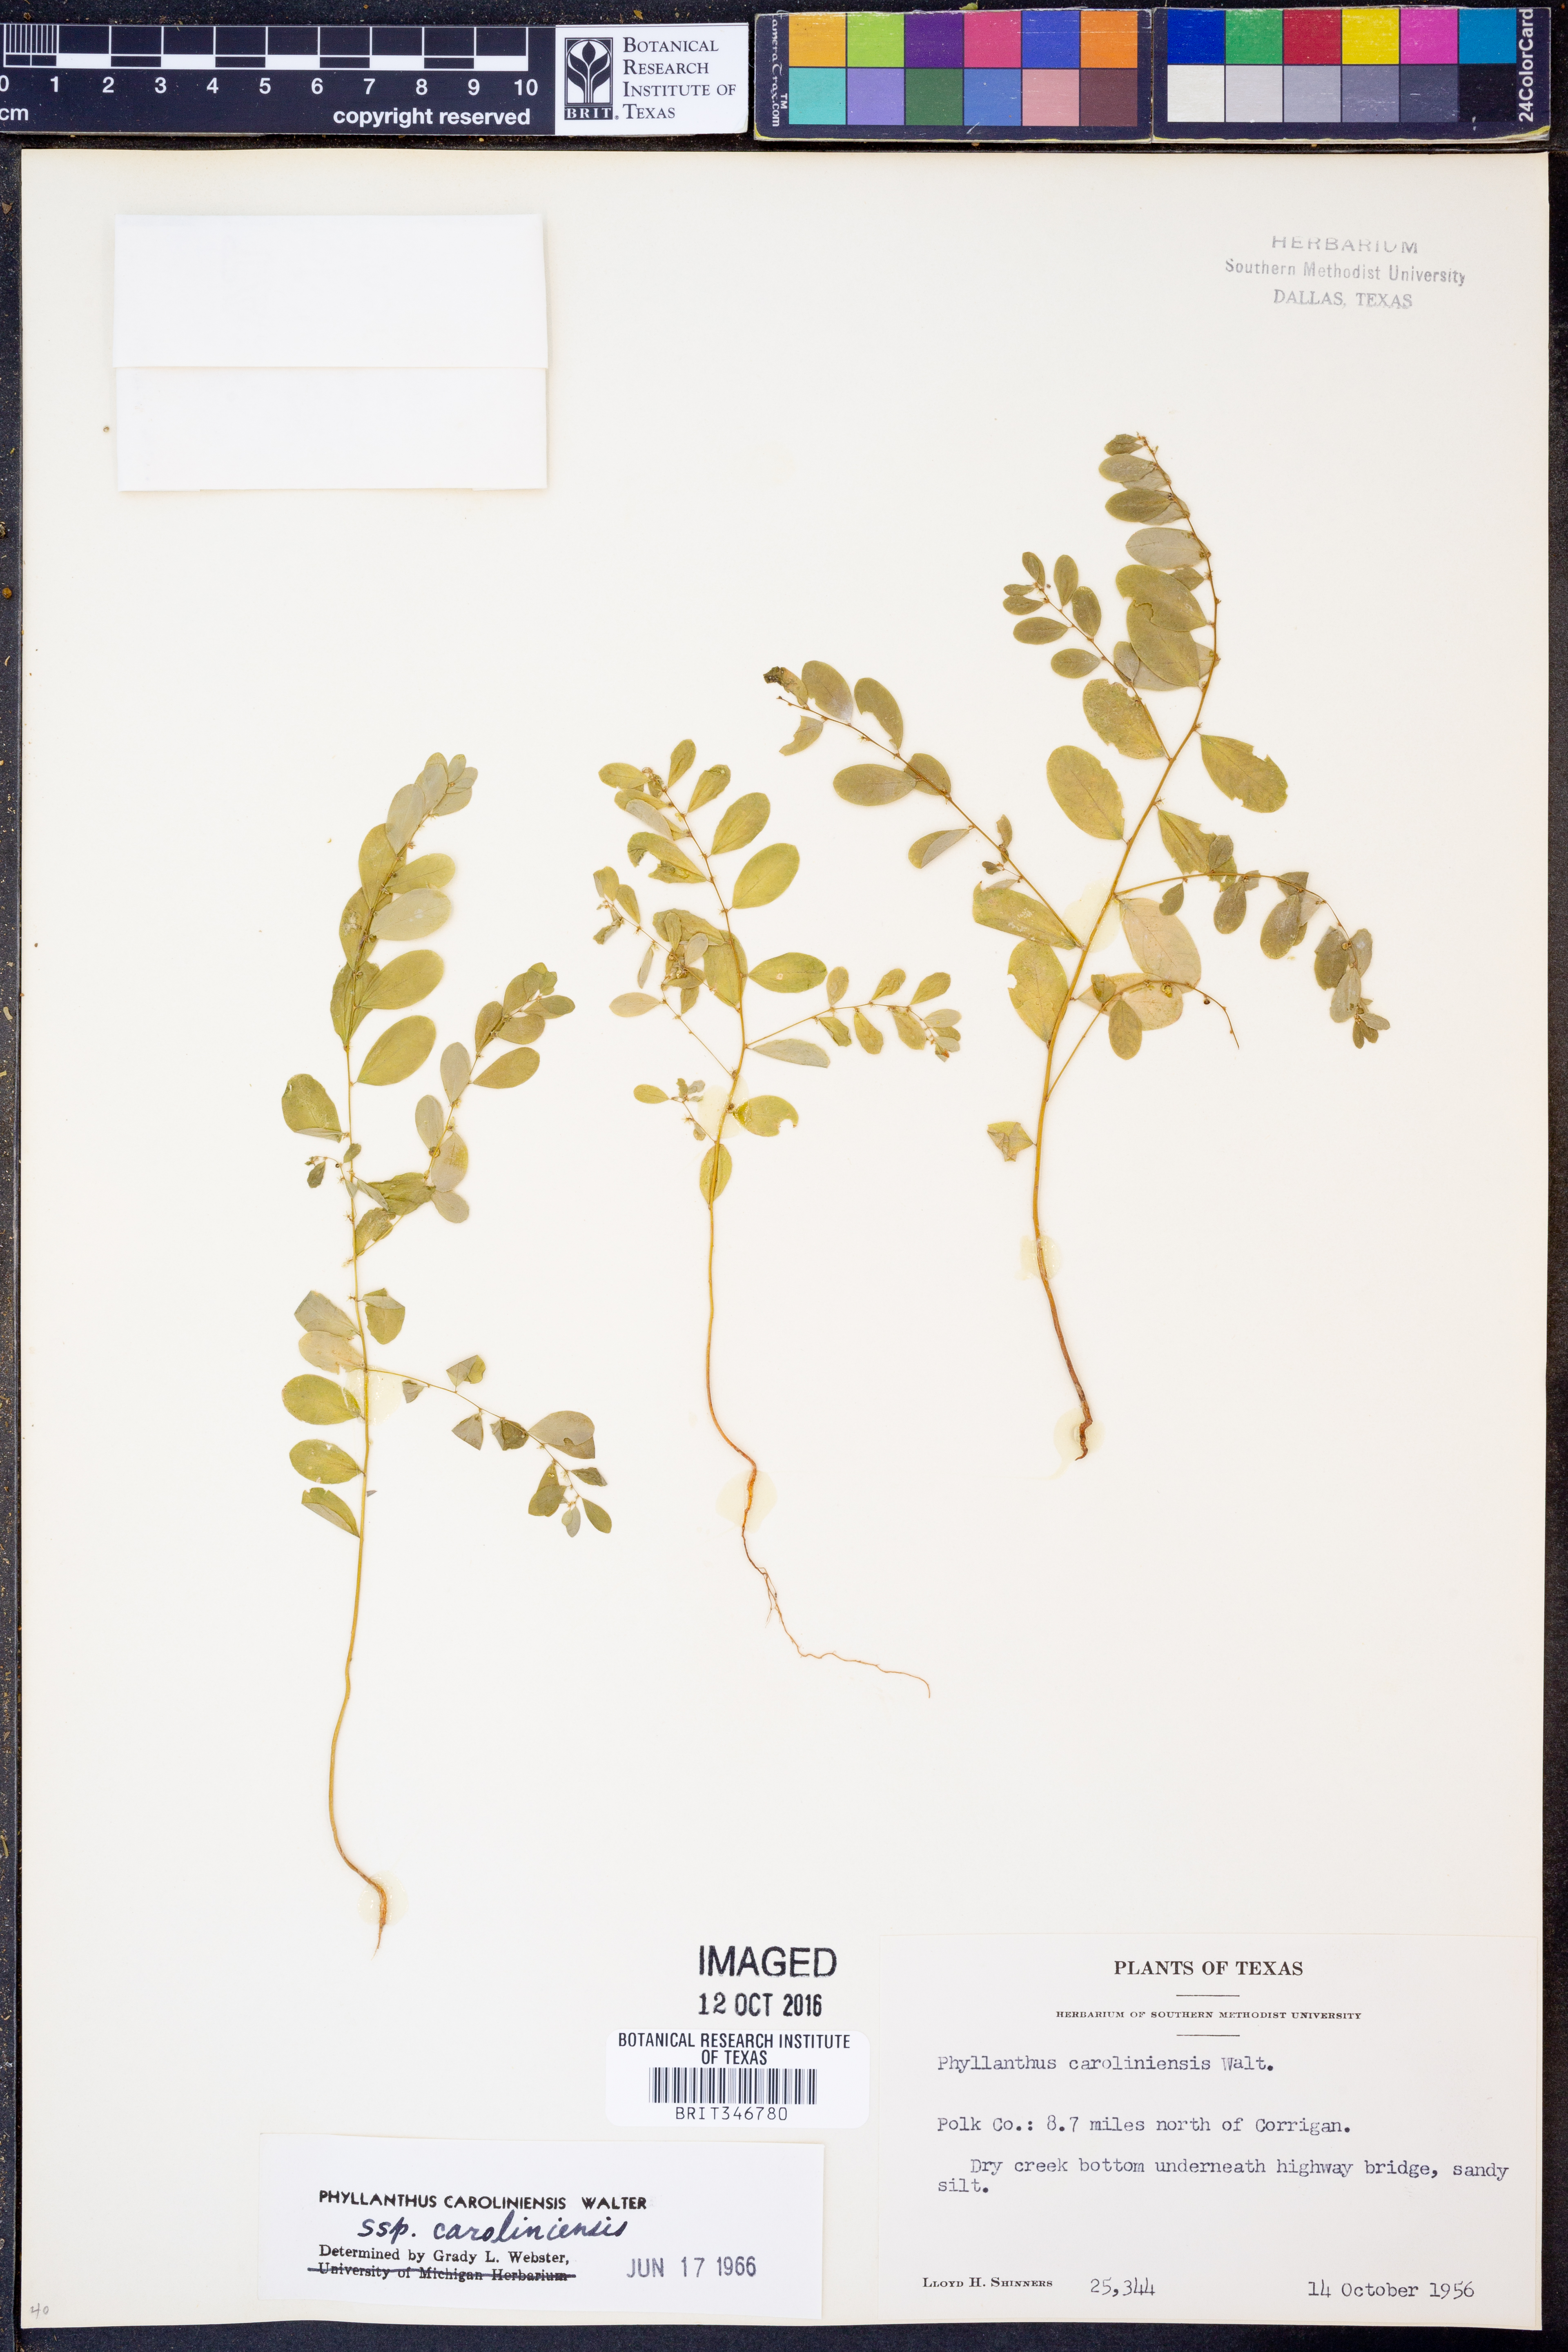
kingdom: Plantae
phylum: Tracheophyta
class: Magnoliopsida
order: Malpighiales
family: Phyllanthaceae
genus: Phyllanthus
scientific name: Phyllanthus caroliniensis
